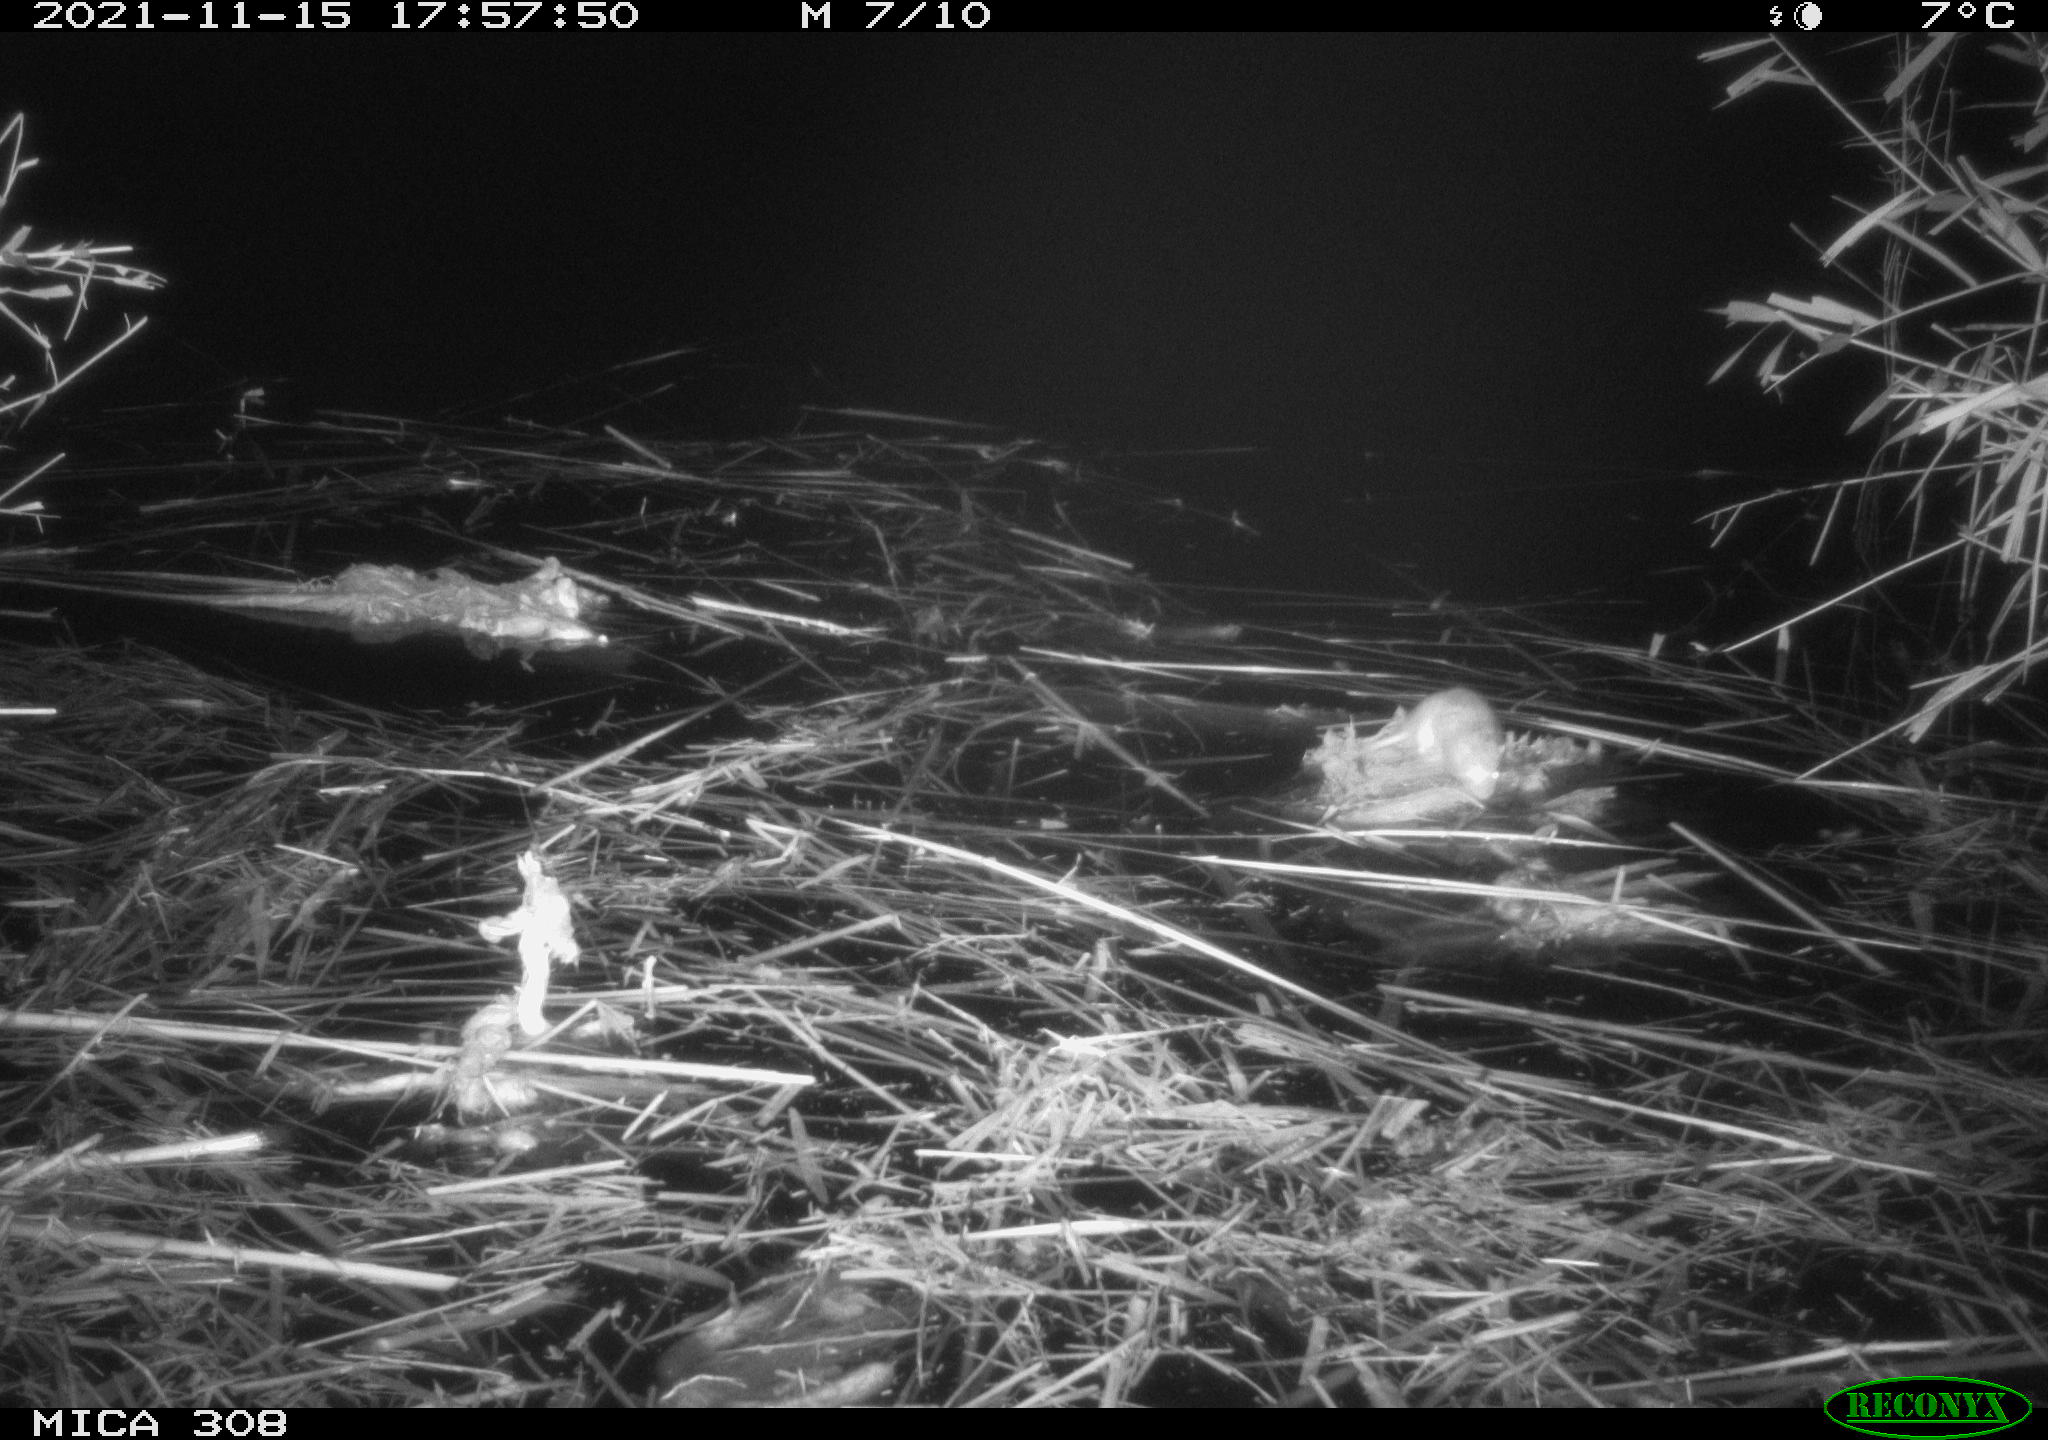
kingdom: Animalia
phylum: Chordata
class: Mammalia
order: Rodentia
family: Muridae
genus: Rattus
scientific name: Rattus norvegicus
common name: Brown rat
